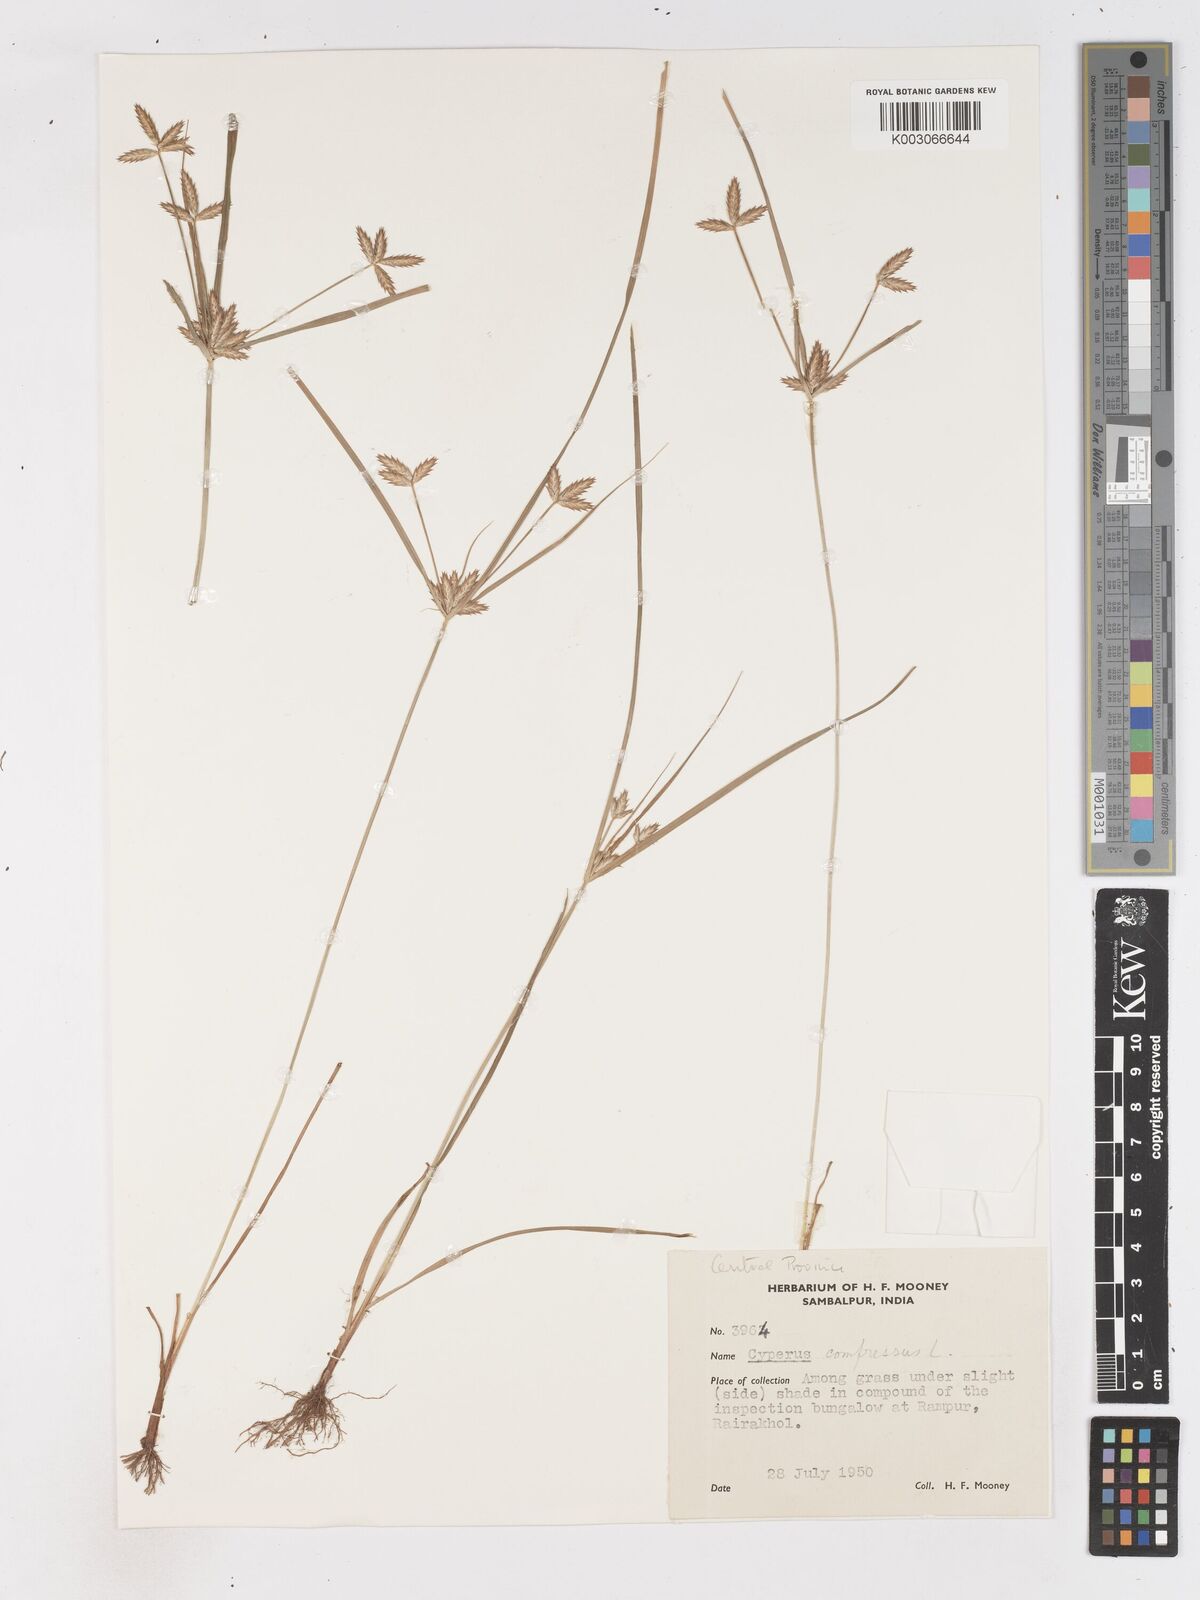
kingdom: Plantae
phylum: Tracheophyta
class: Liliopsida
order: Poales
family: Cyperaceae
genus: Cyperus
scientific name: Cyperus compressus
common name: Poorland flatsedge
